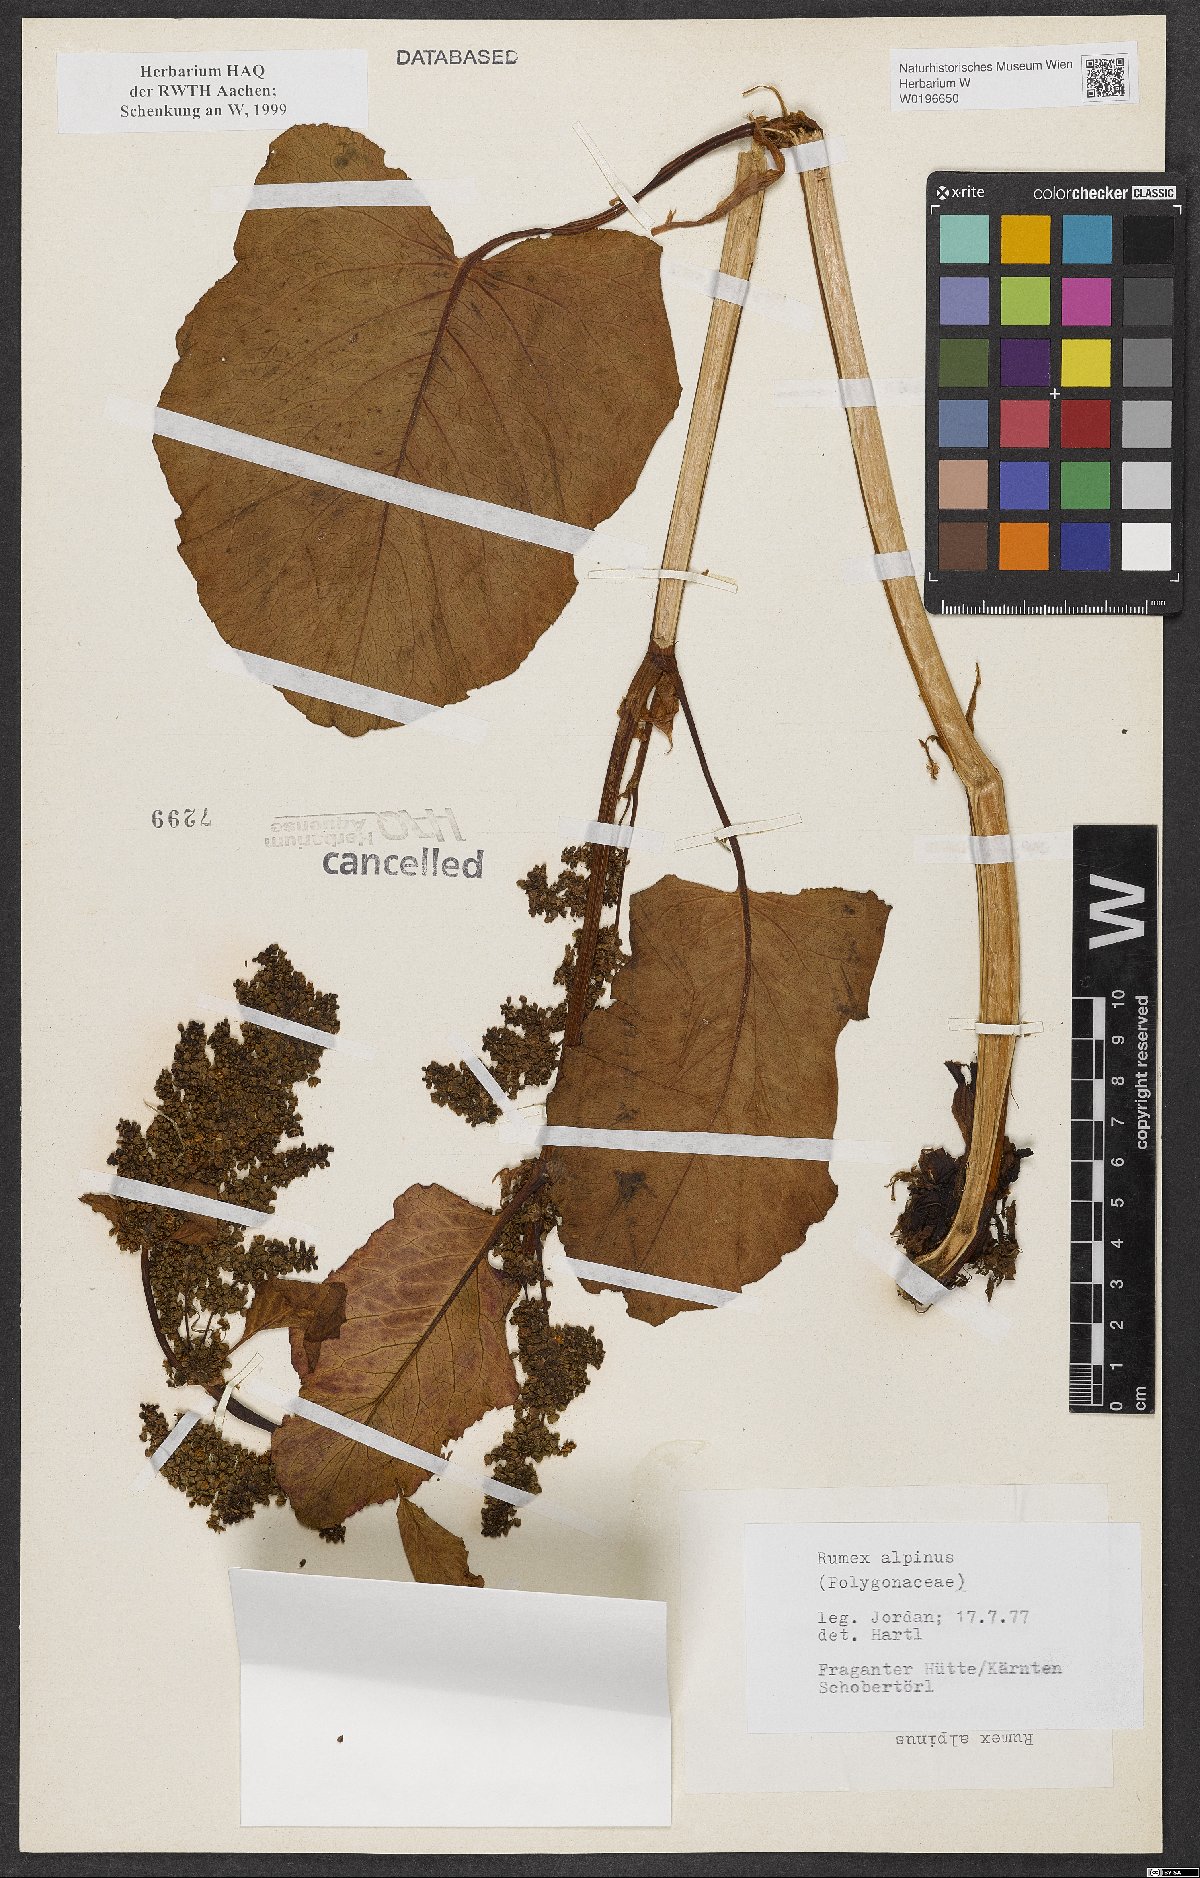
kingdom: Plantae
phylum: Tracheophyta
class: Magnoliopsida
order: Caryophyllales
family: Polygonaceae
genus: Rumex
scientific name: Rumex alpinus
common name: Alpine dock
